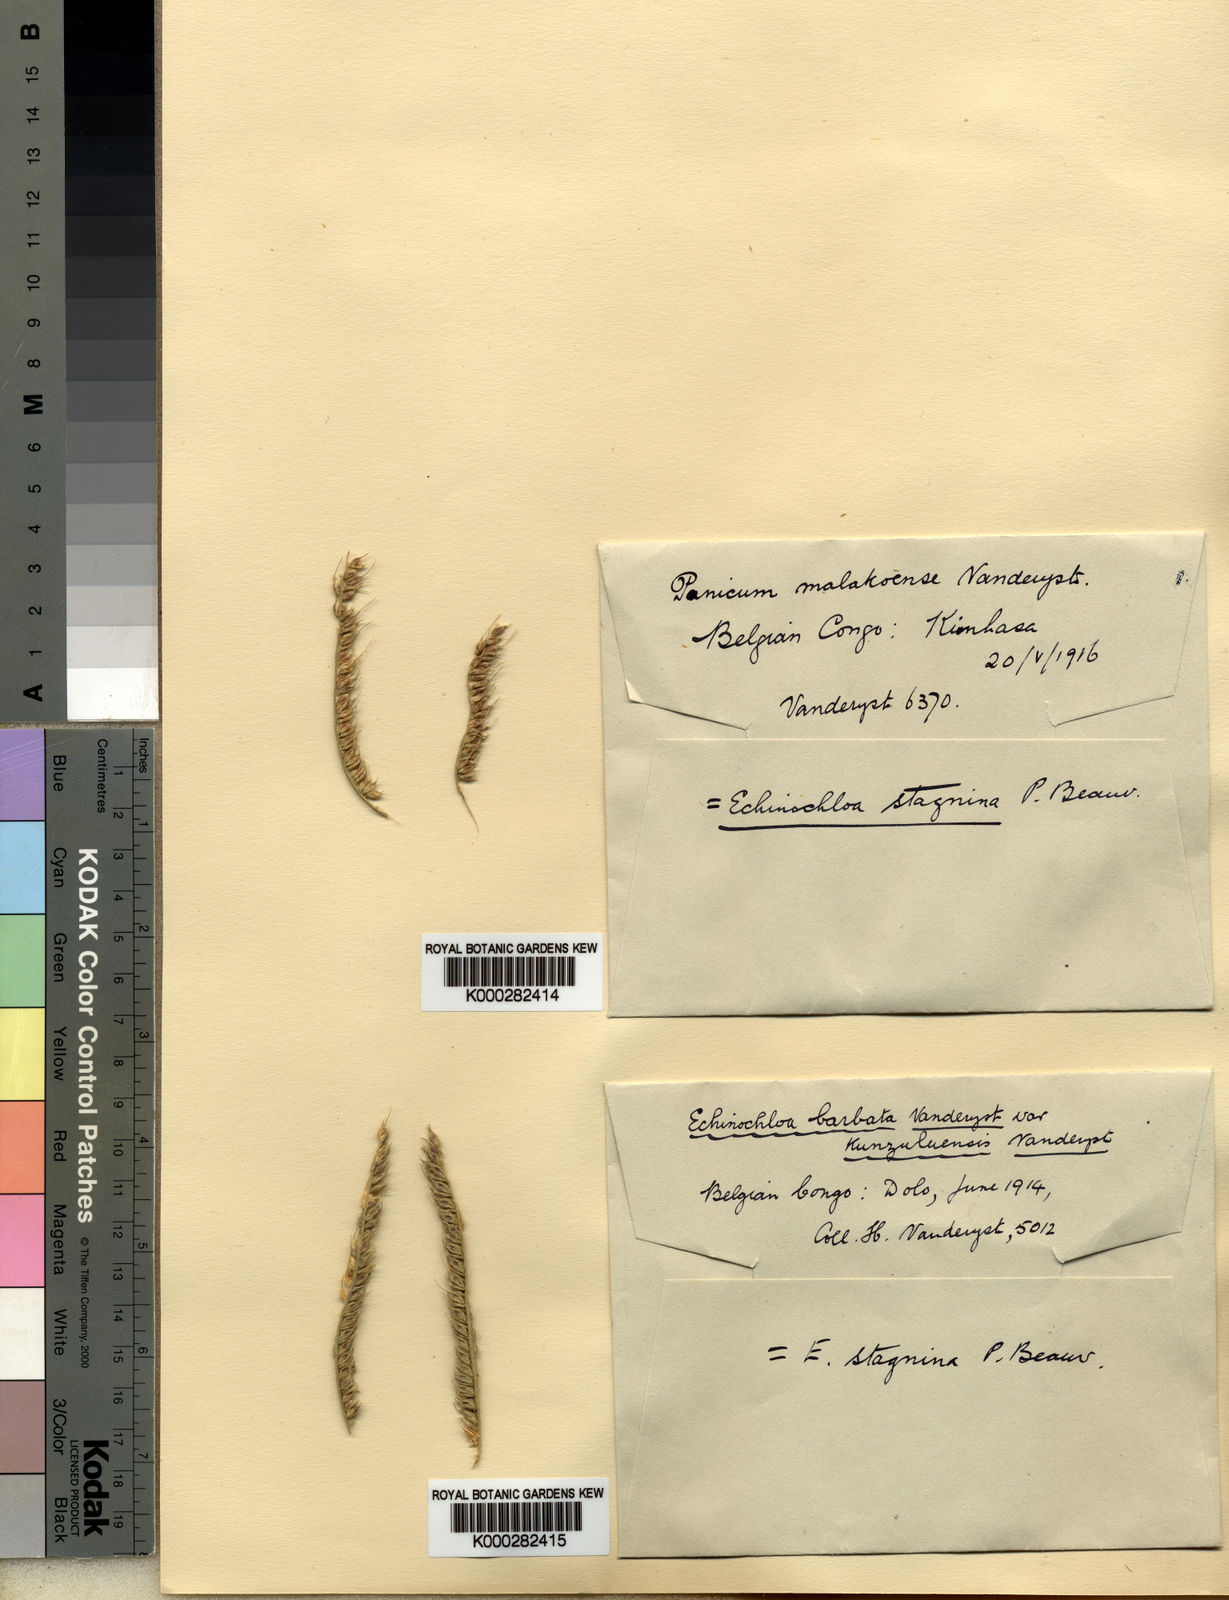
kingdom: Plantae
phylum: Tracheophyta
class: Liliopsida
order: Poales
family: Poaceae
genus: Panicum
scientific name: Panicum fauriei
